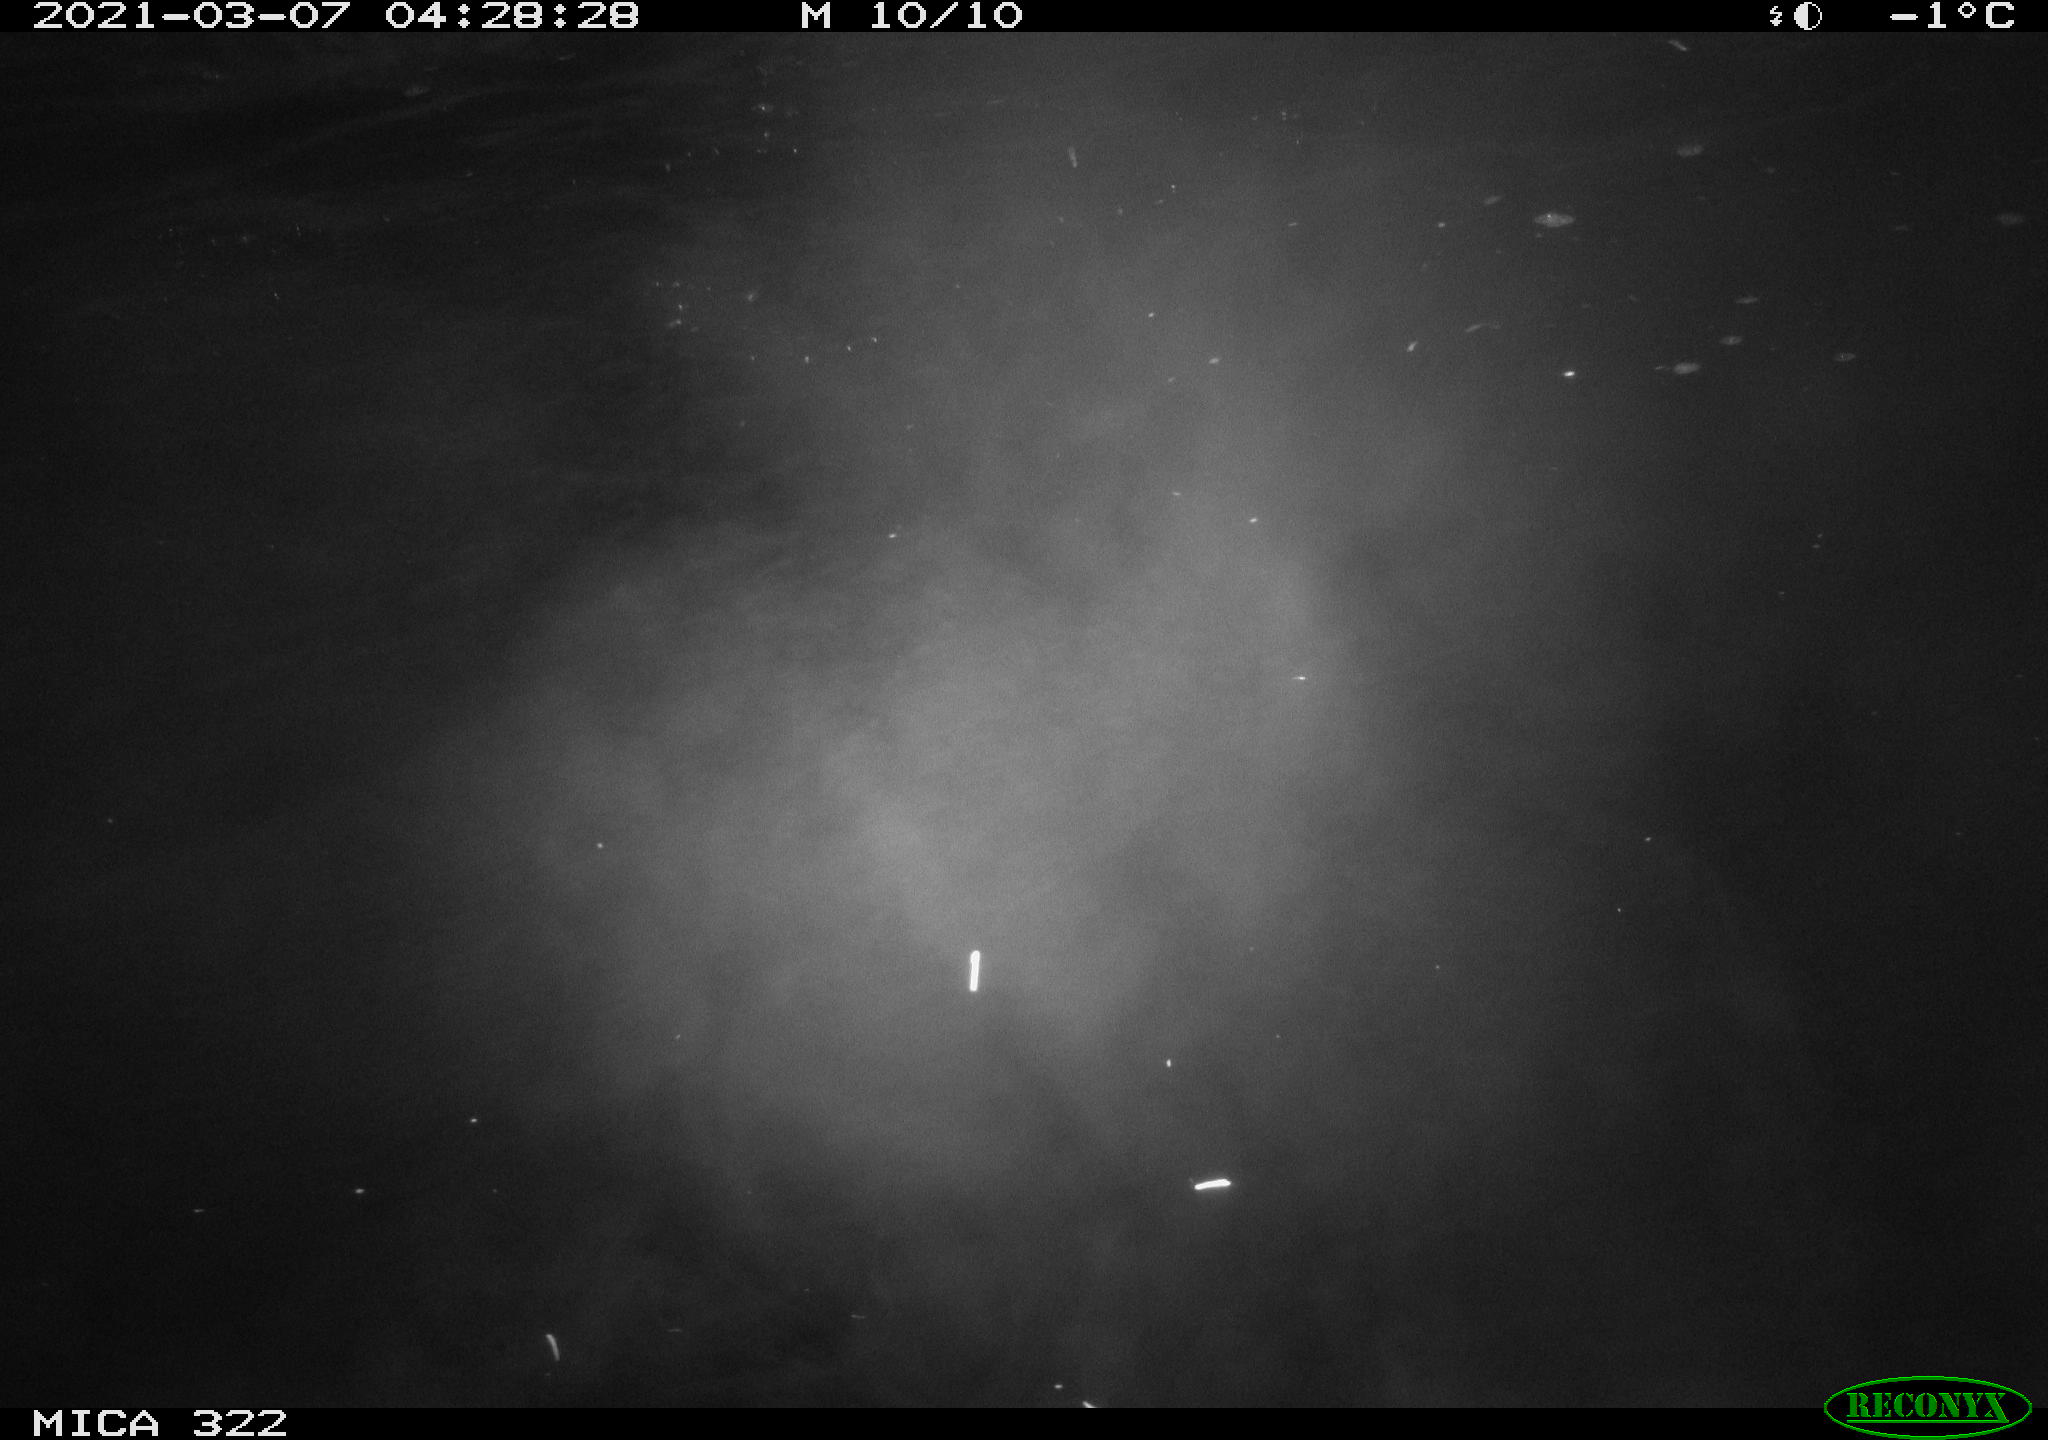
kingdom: Animalia
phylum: Chordata
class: Aves
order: Gruiformes
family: Rallidae
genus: Gallinula
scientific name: Gallinula chloropus
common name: Common moorhen
